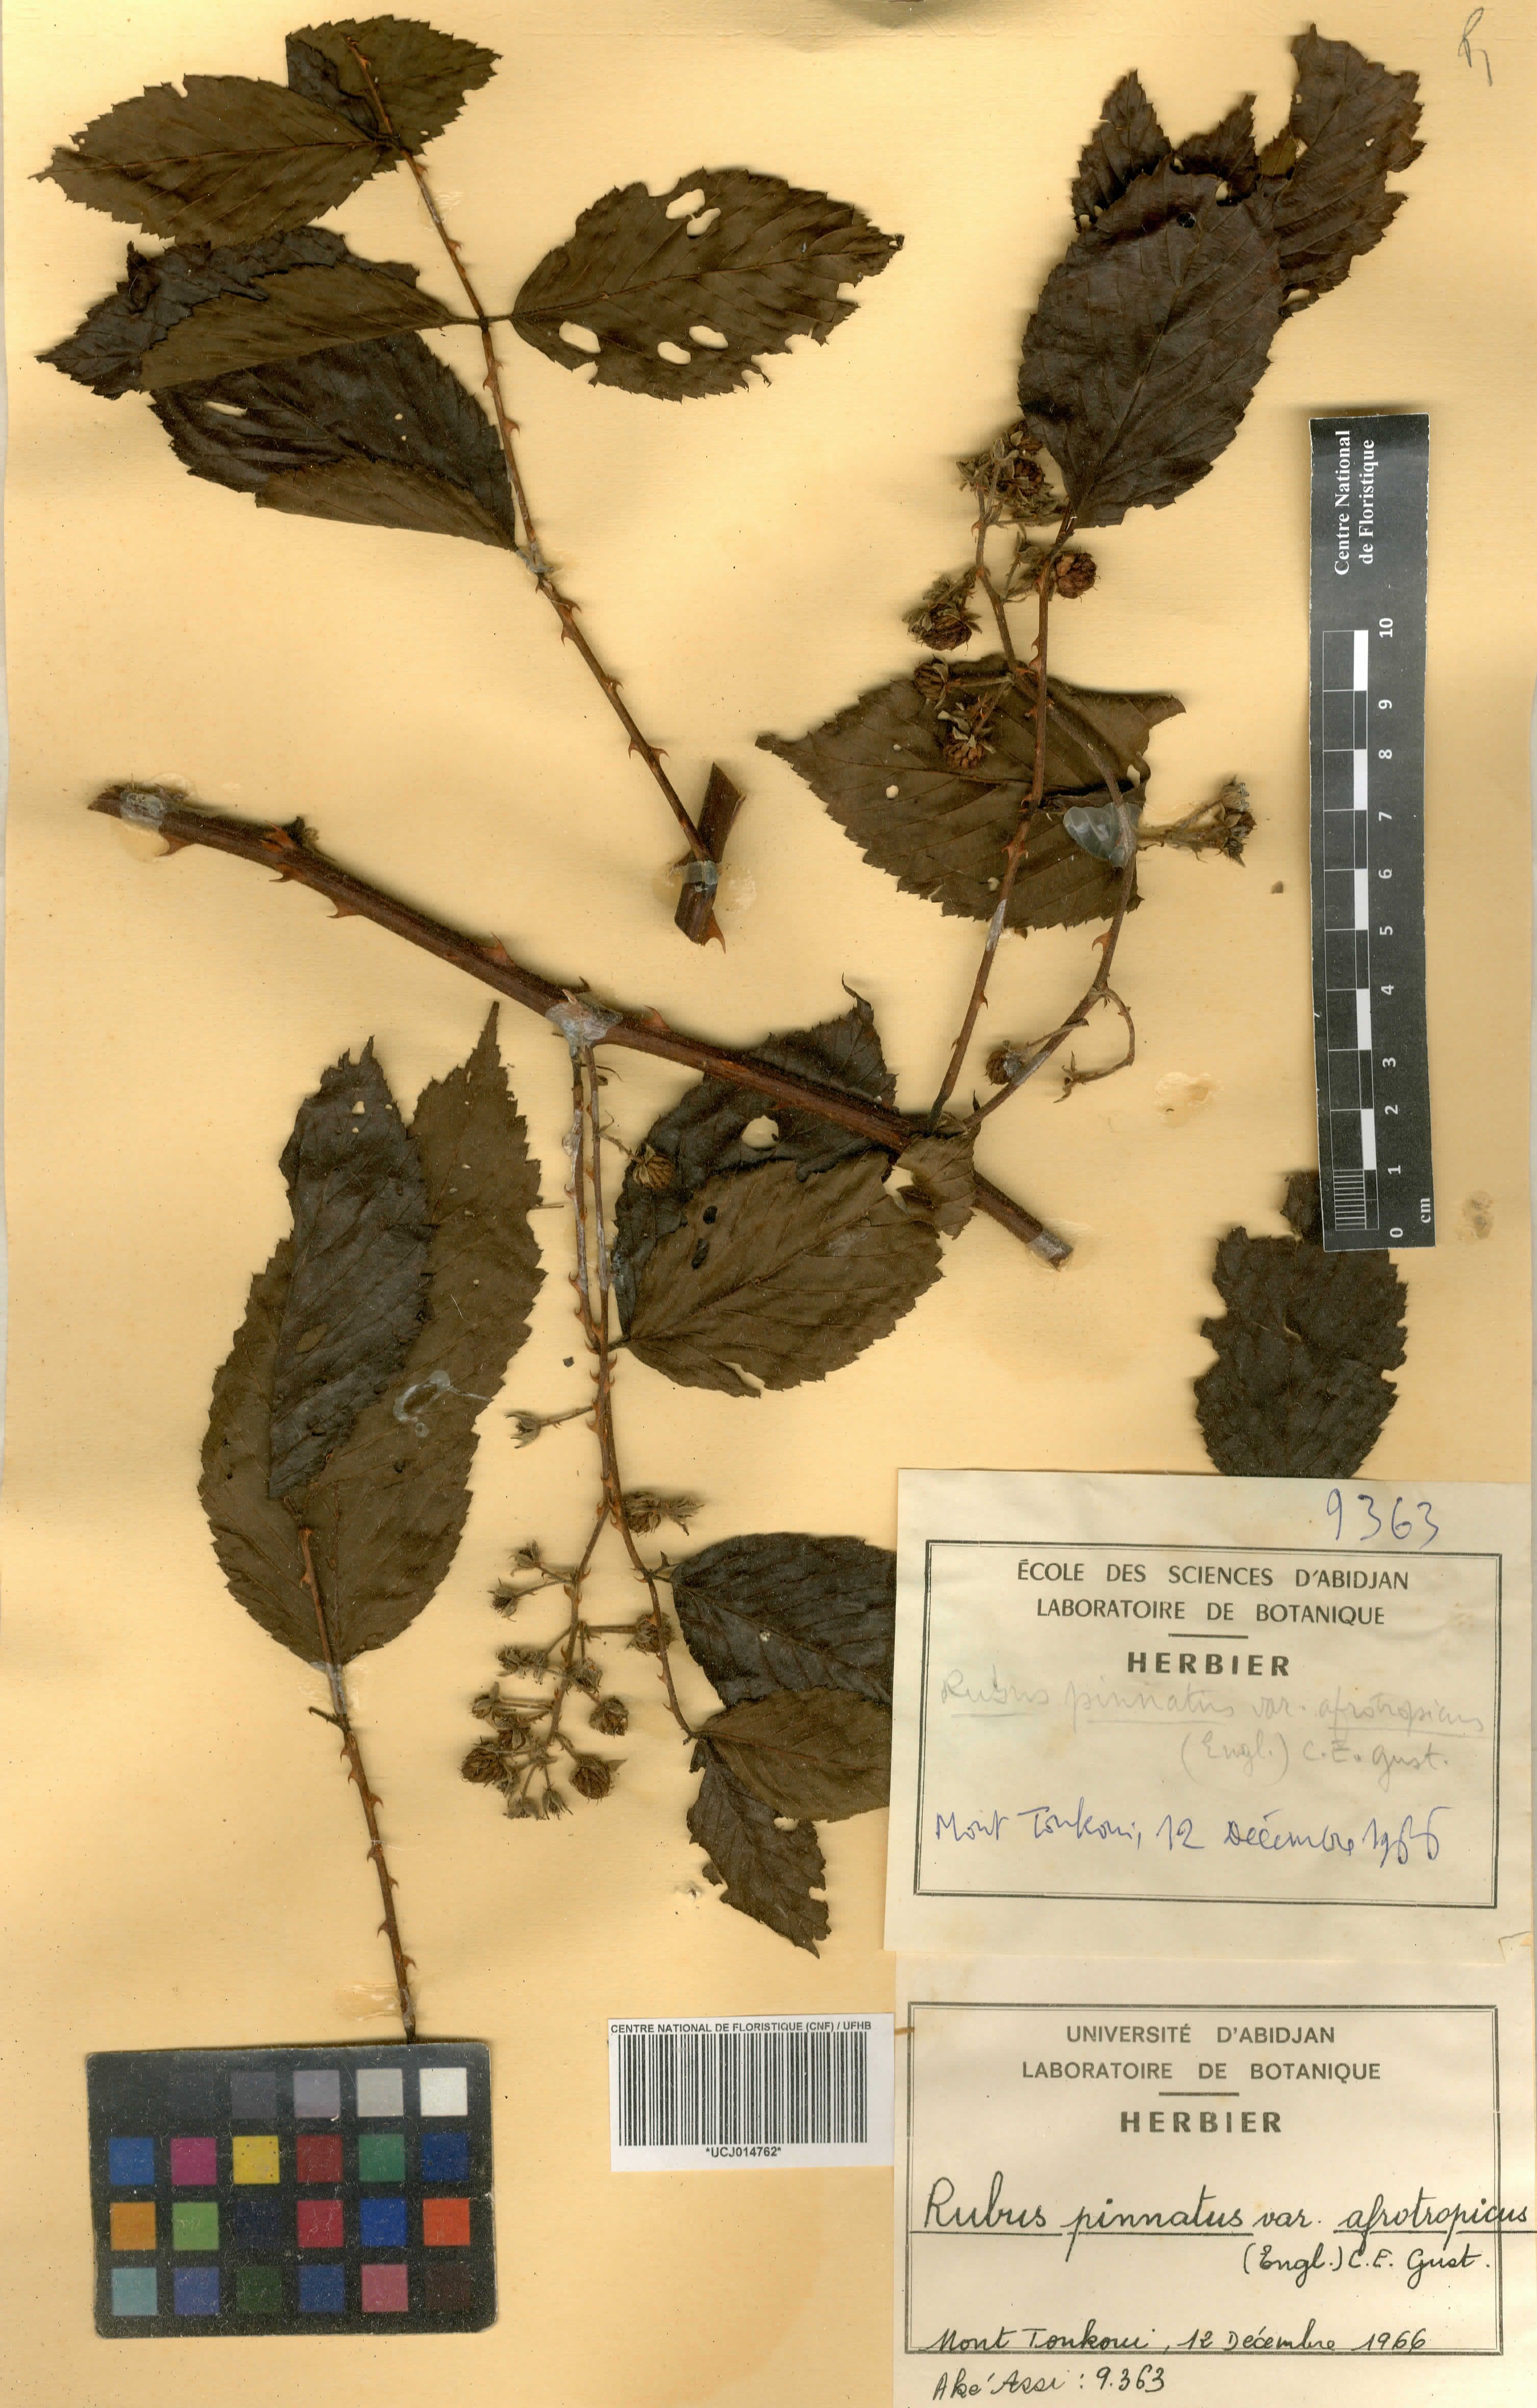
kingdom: Plantae
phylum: Tracheophyta
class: Magnoliopsida
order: Rosales
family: Rosaceae
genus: Rubus
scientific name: Rubus pinnatus
